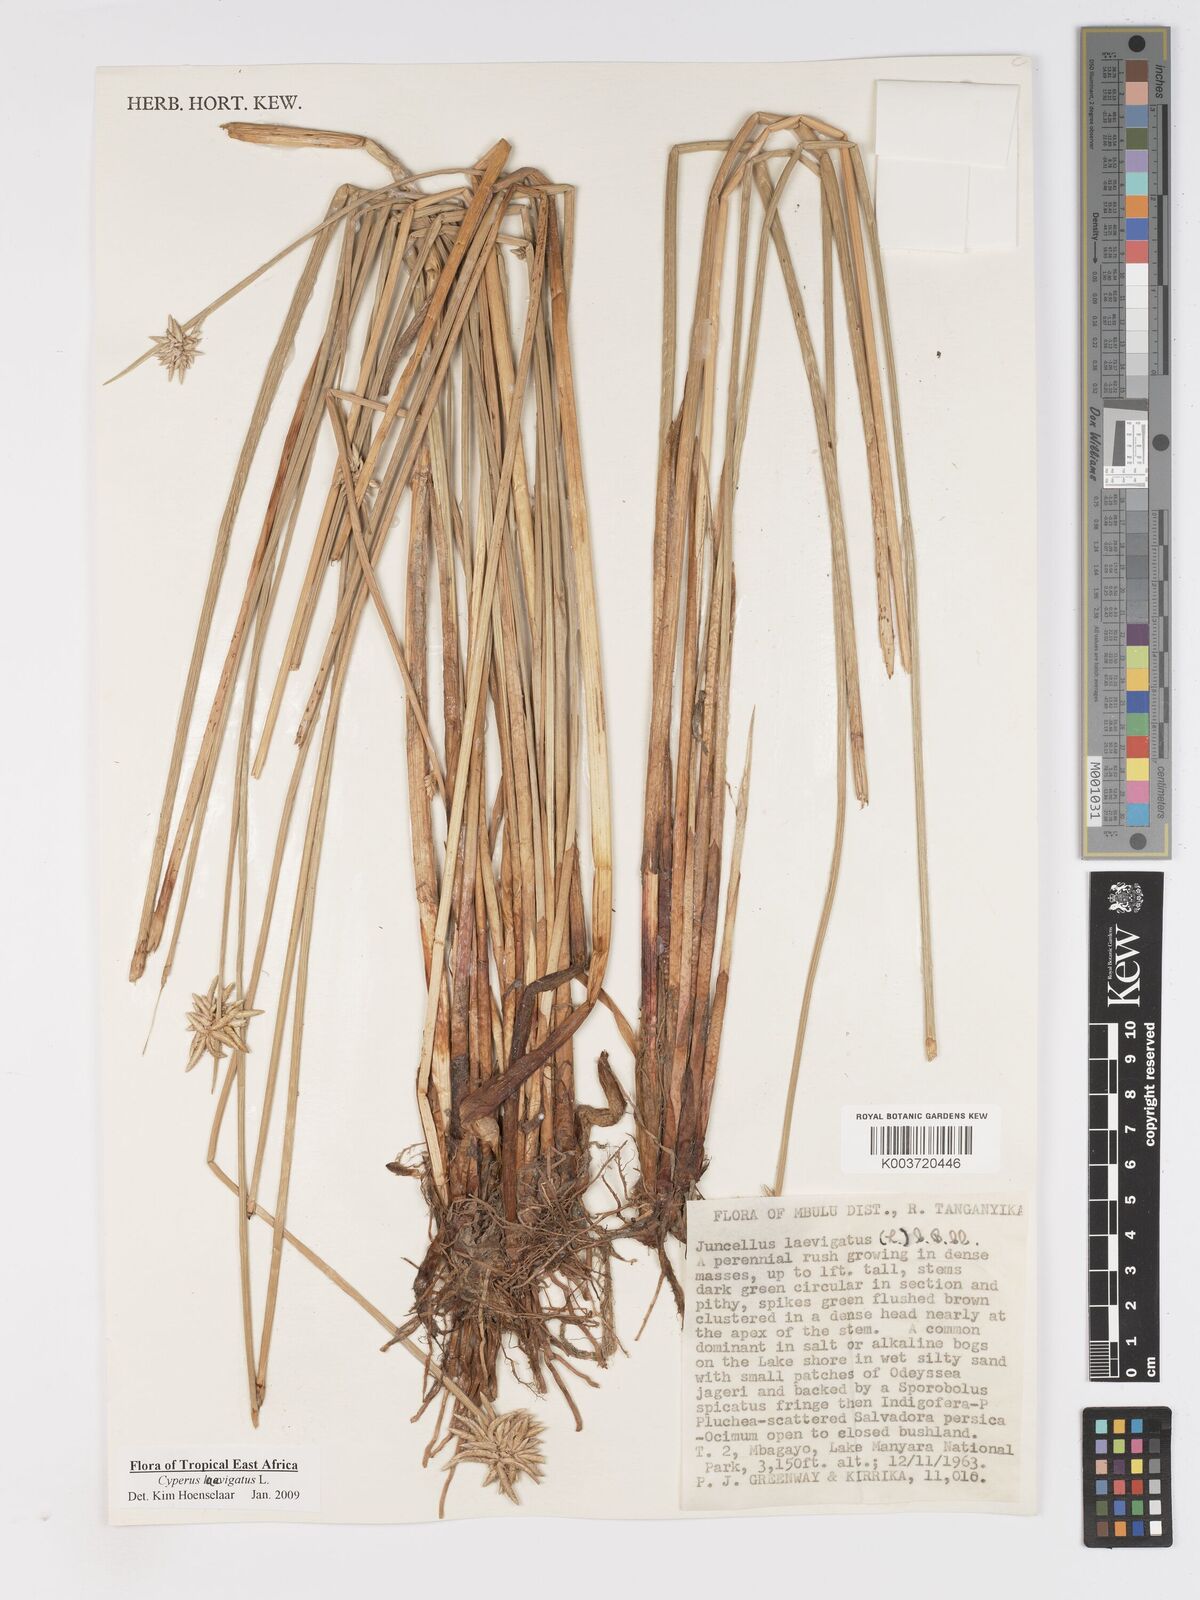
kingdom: Plantae
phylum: Tracheophyta
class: Liliopsida
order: Poales
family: Cyperaceae
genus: Cyperus
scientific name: Cyperus laevigatus
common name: Smooth flat sedge
